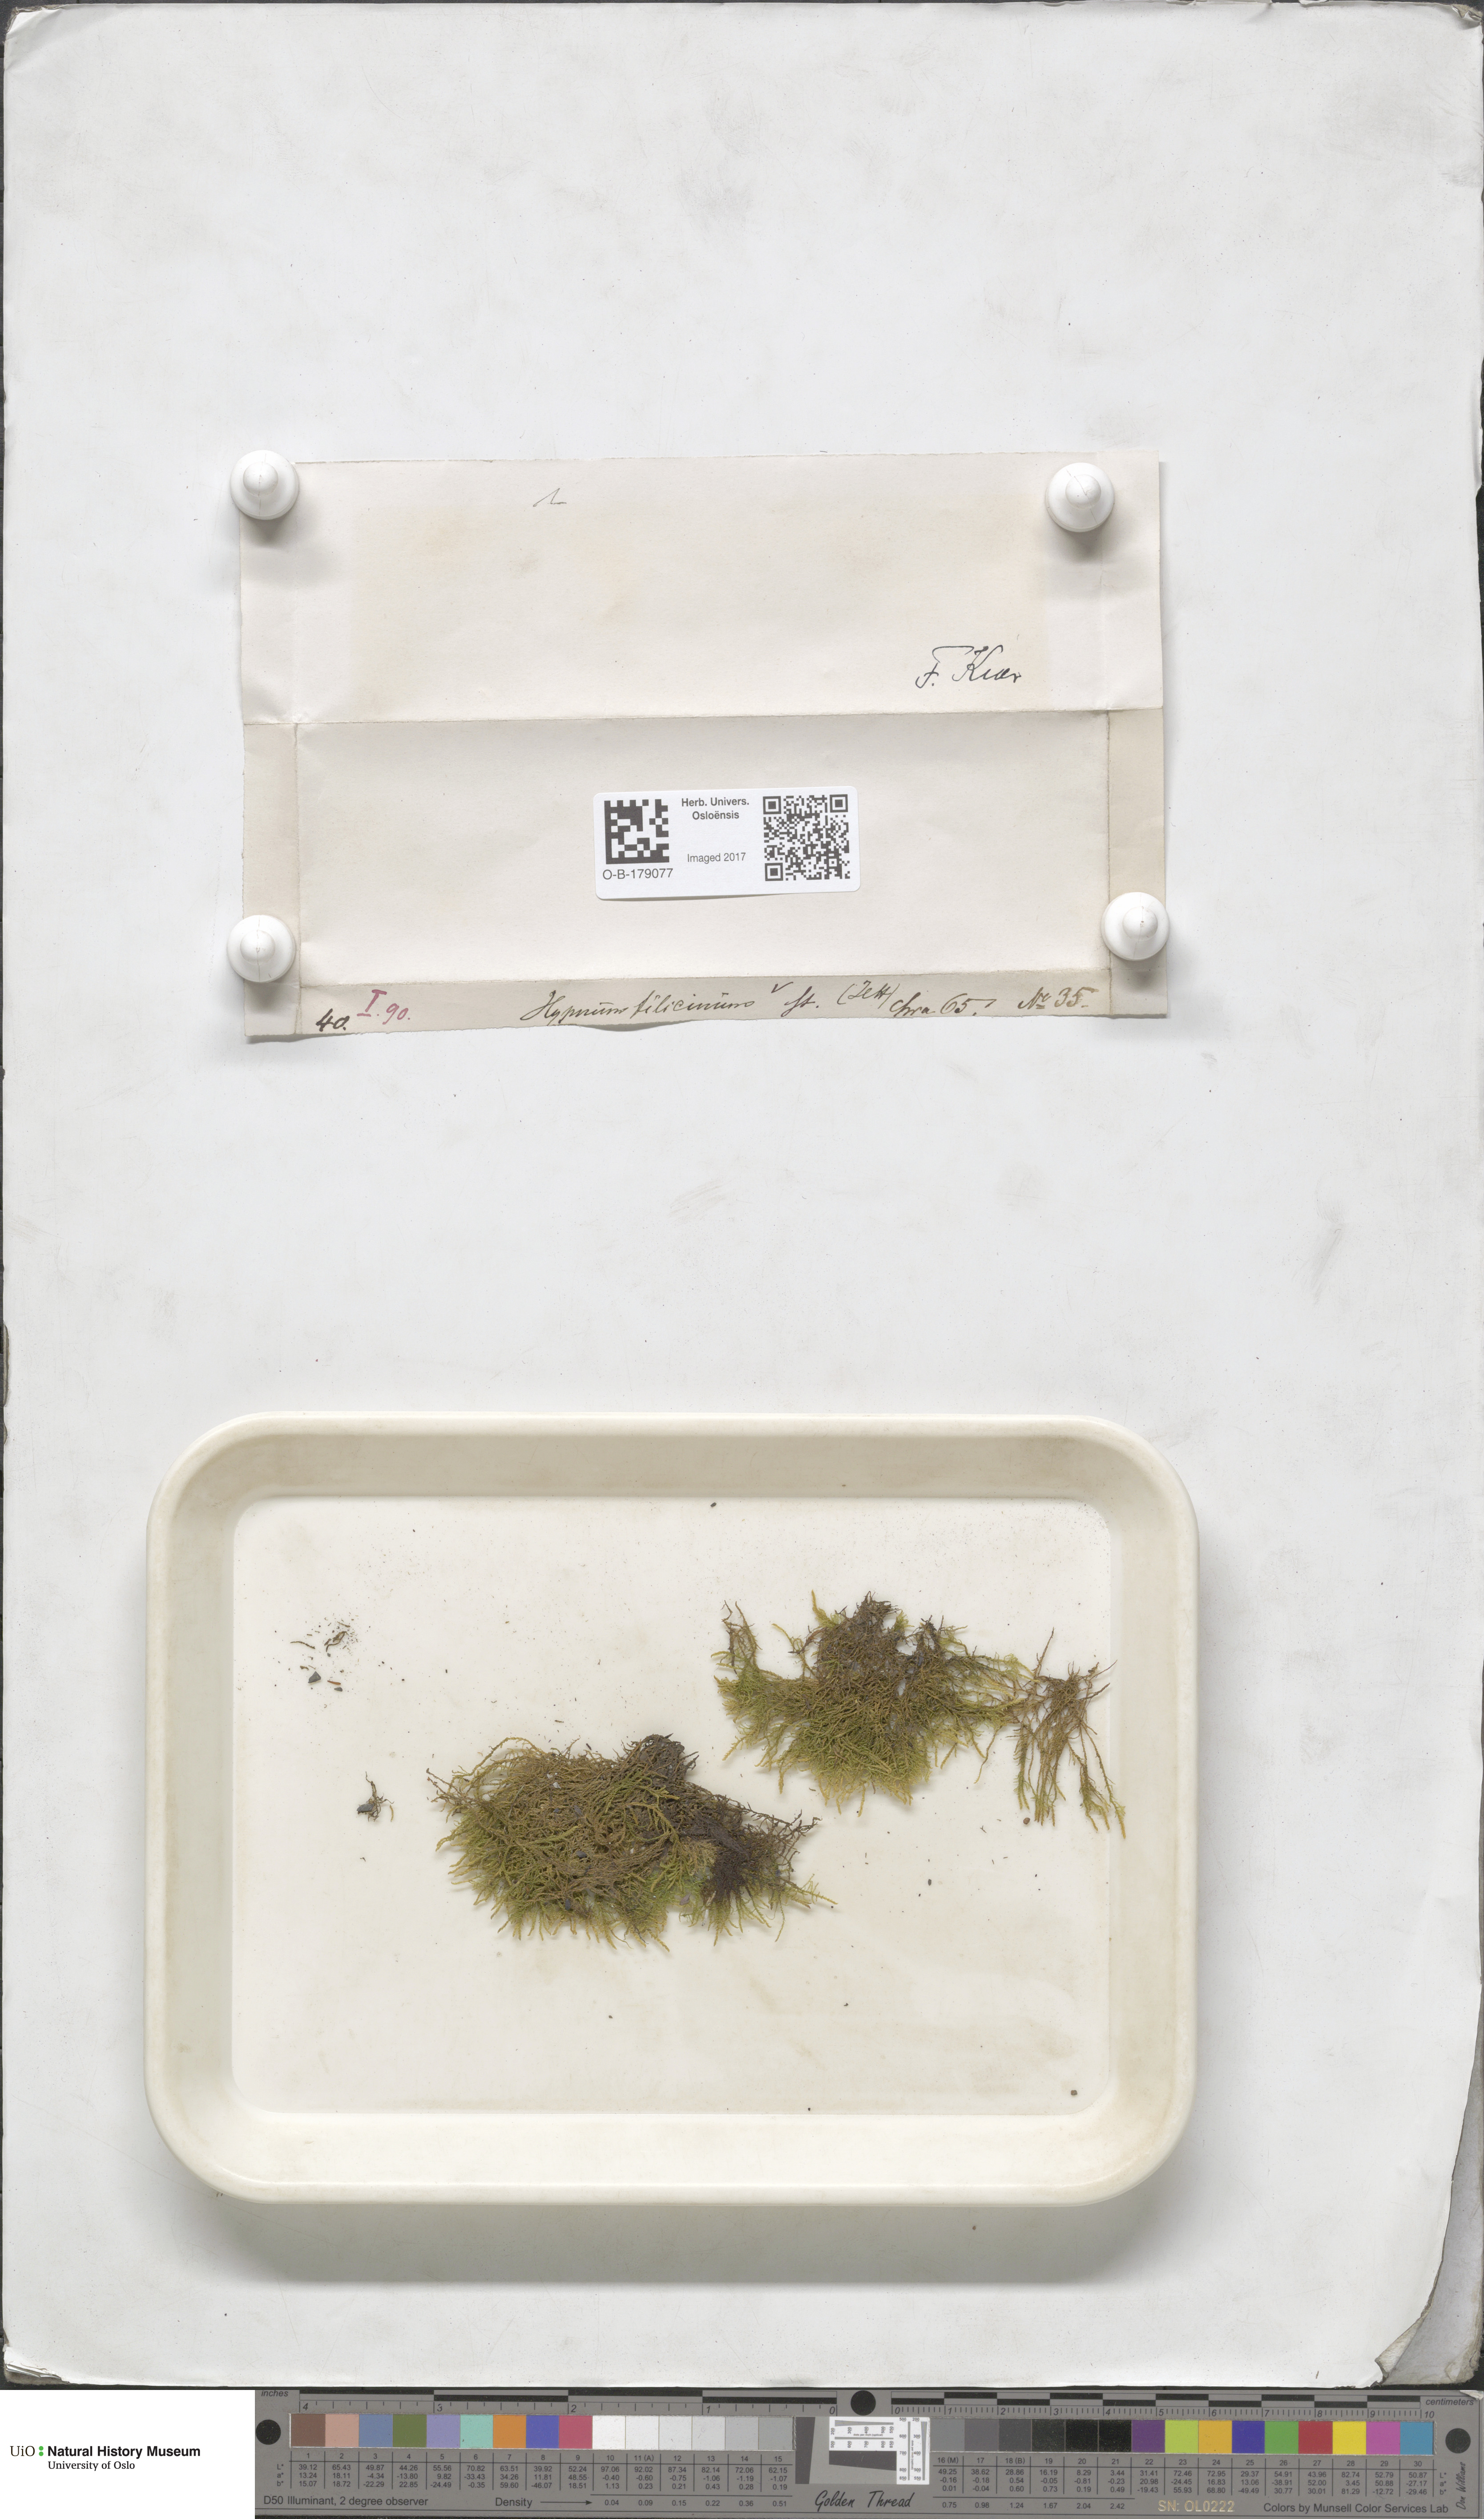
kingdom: Plantae
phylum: Bryophyta
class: Bryopsida
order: Hypnales
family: Amblystegiaceae
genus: Cratoneuron
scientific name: Cratoneuron filicinum
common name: Fern-leaved hook moss
